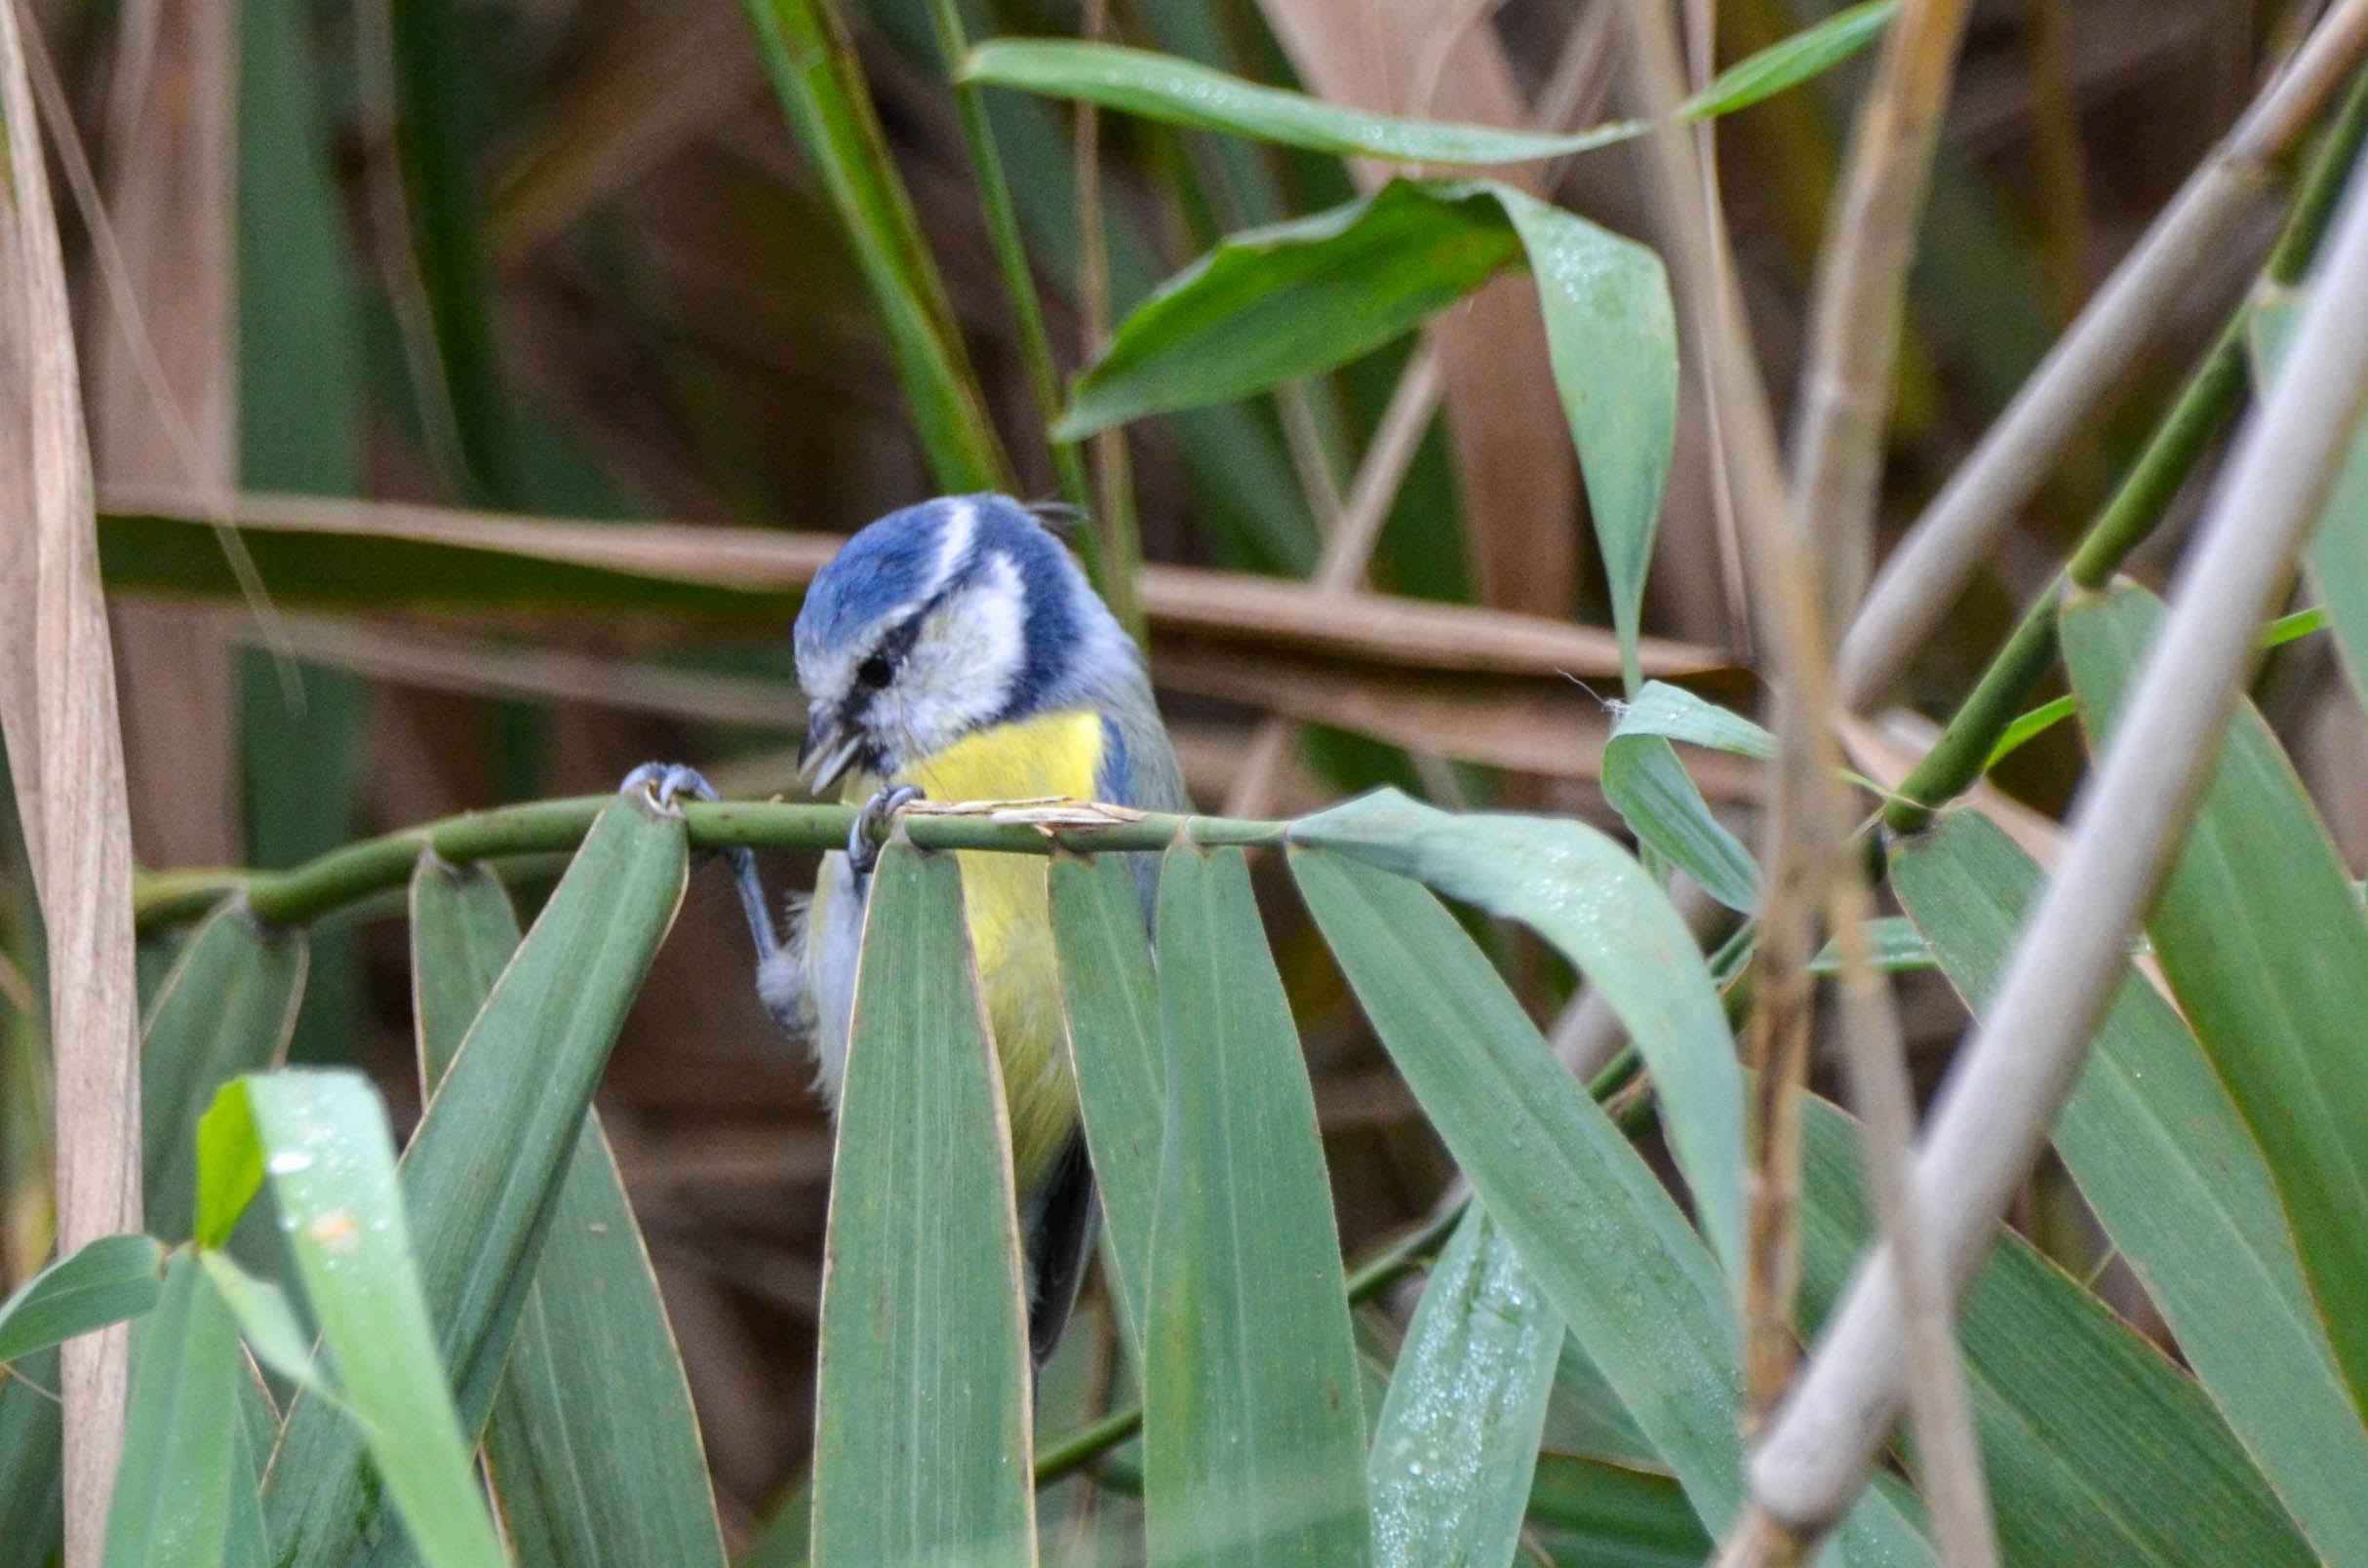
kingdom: Animalia
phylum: Chordata
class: Aves
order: Passeriformes
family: Paridae
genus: Cyanistes
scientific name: Cyanistes caeruleus
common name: Blåmejse
